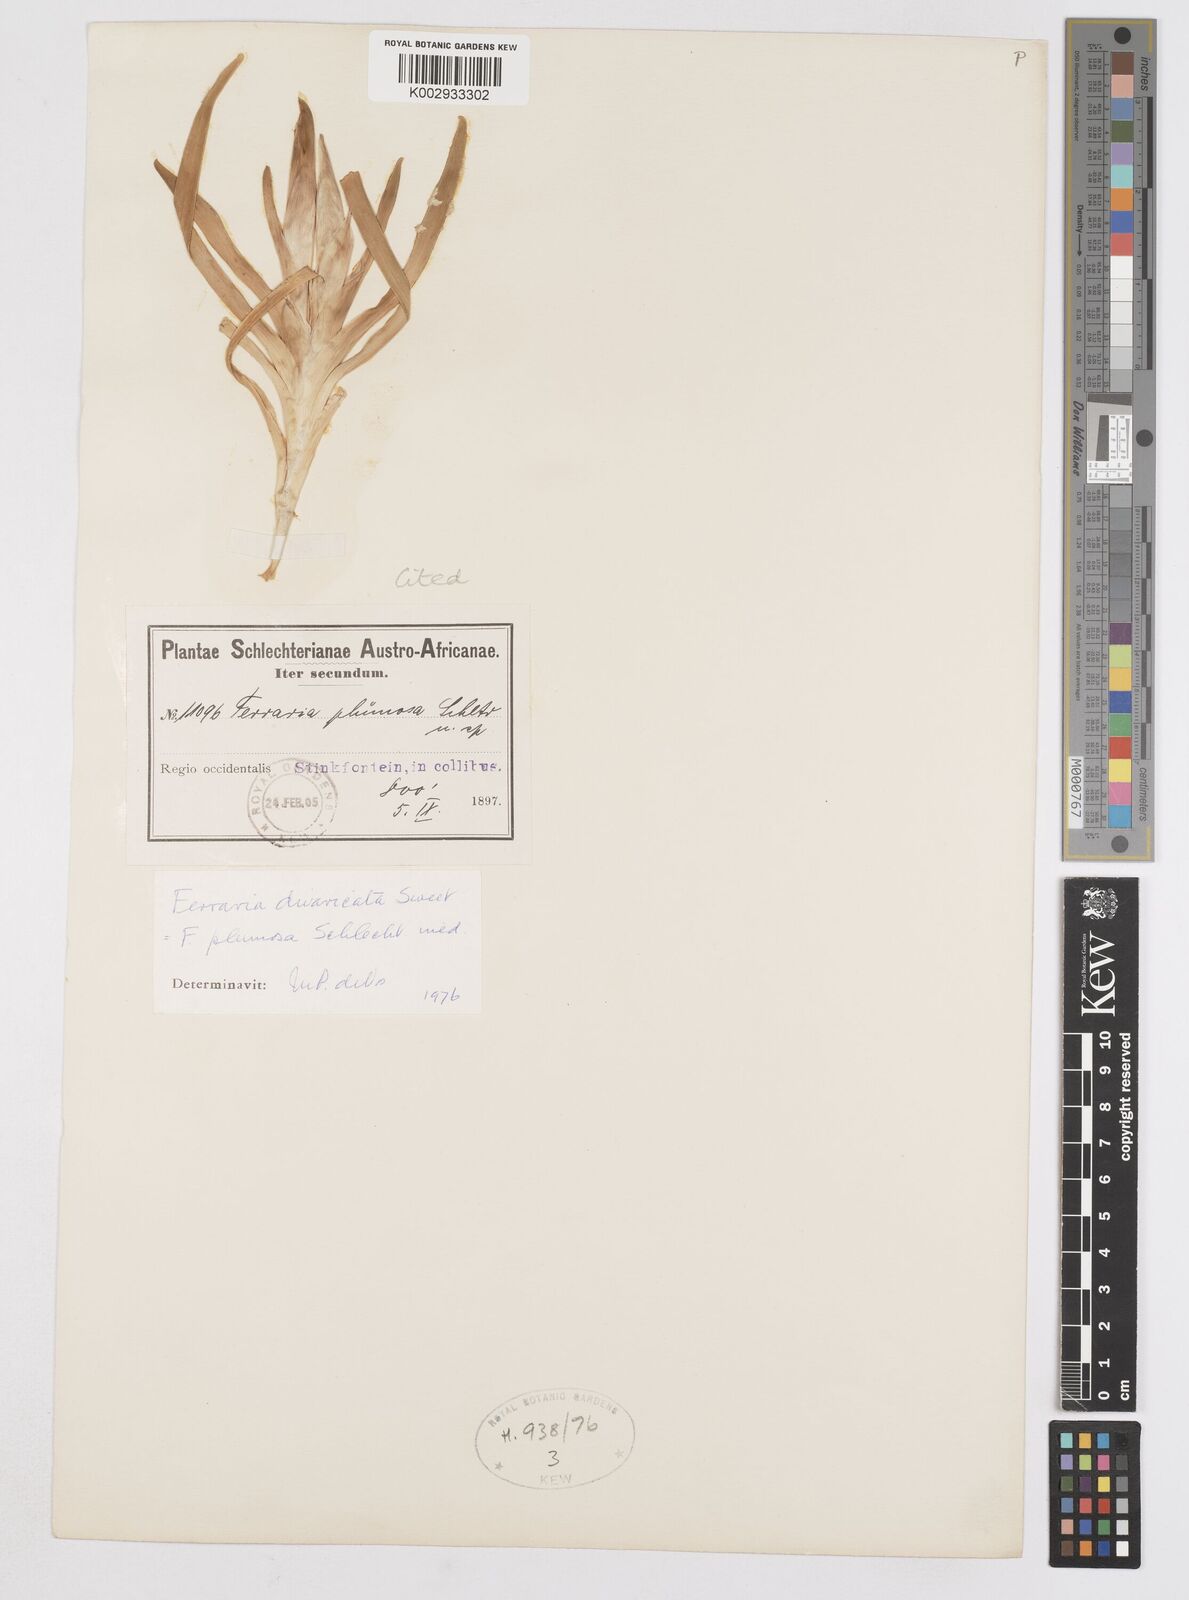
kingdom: Plantae
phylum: Tracheophyta
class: Liliopsida
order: Asparagales
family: Iridaceae
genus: Ferraria
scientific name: Ferraria divaricata
